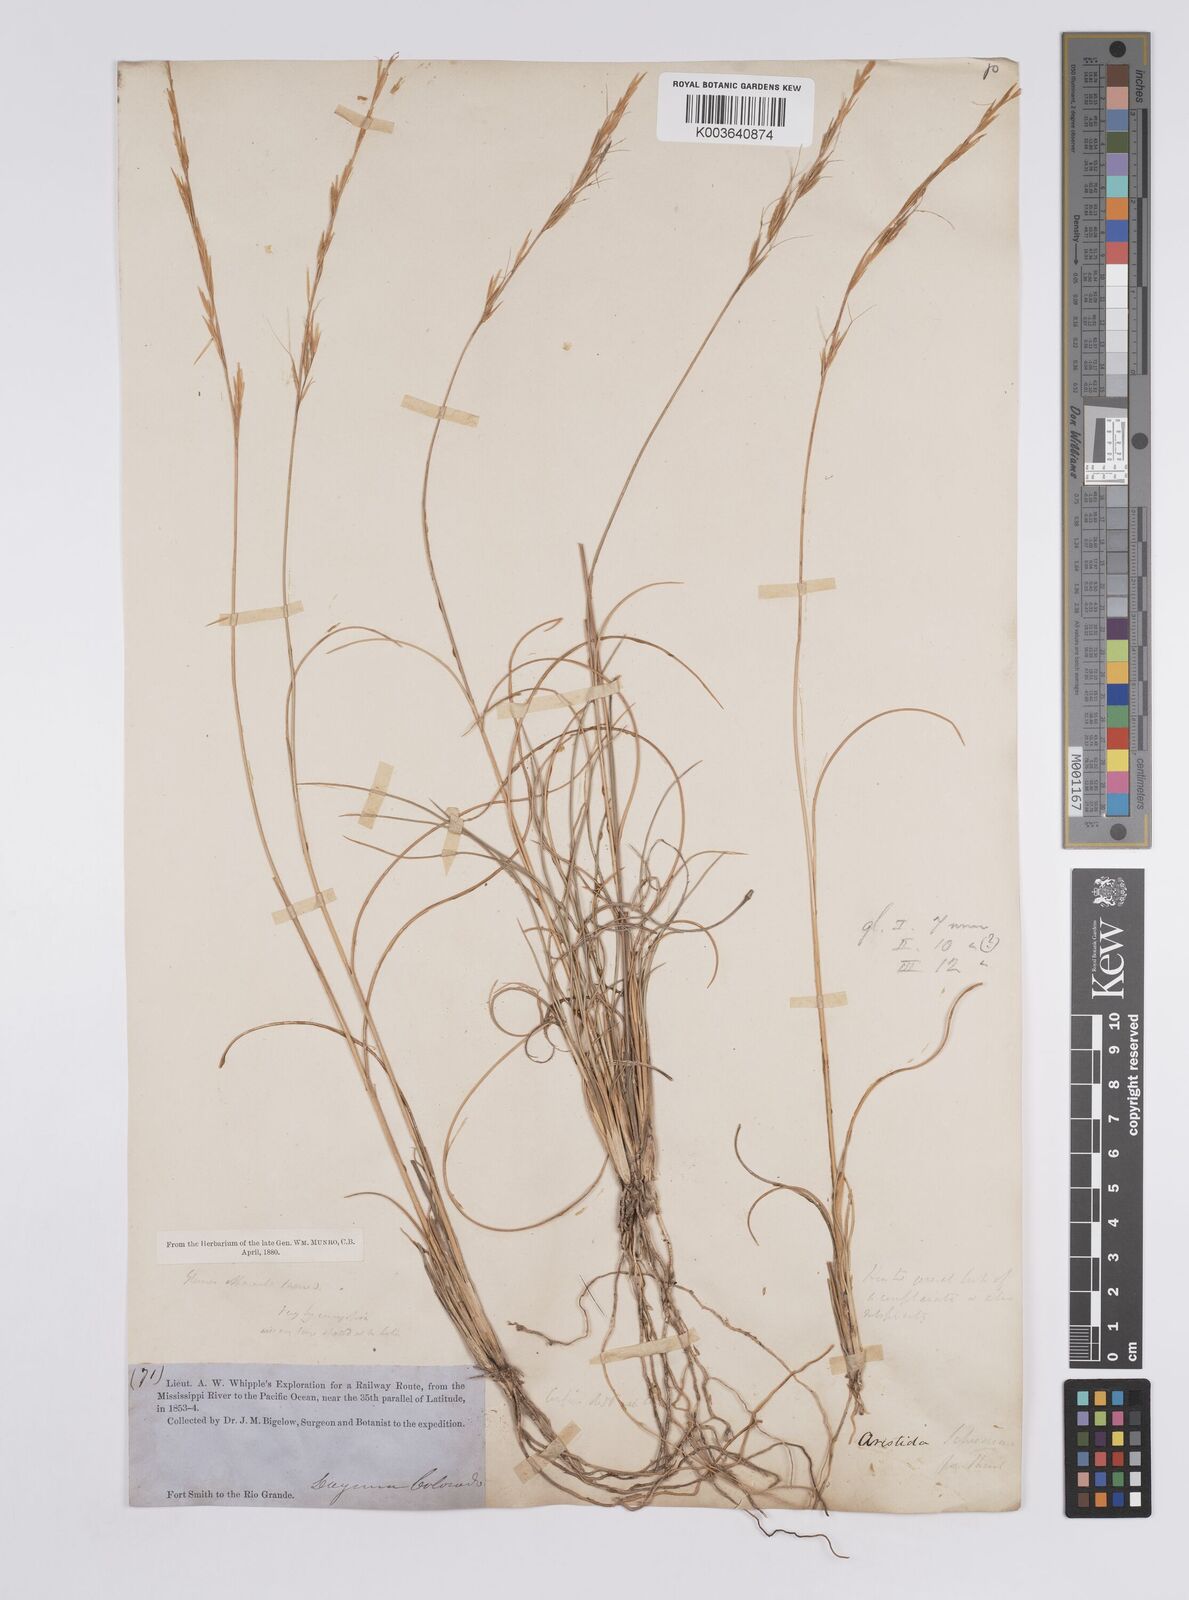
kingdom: Plantae
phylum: Tracheophyta
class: Liliopsida
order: Poales
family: Poaceae
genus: Aristida
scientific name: Aristida purpurea
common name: Purple threeawn
